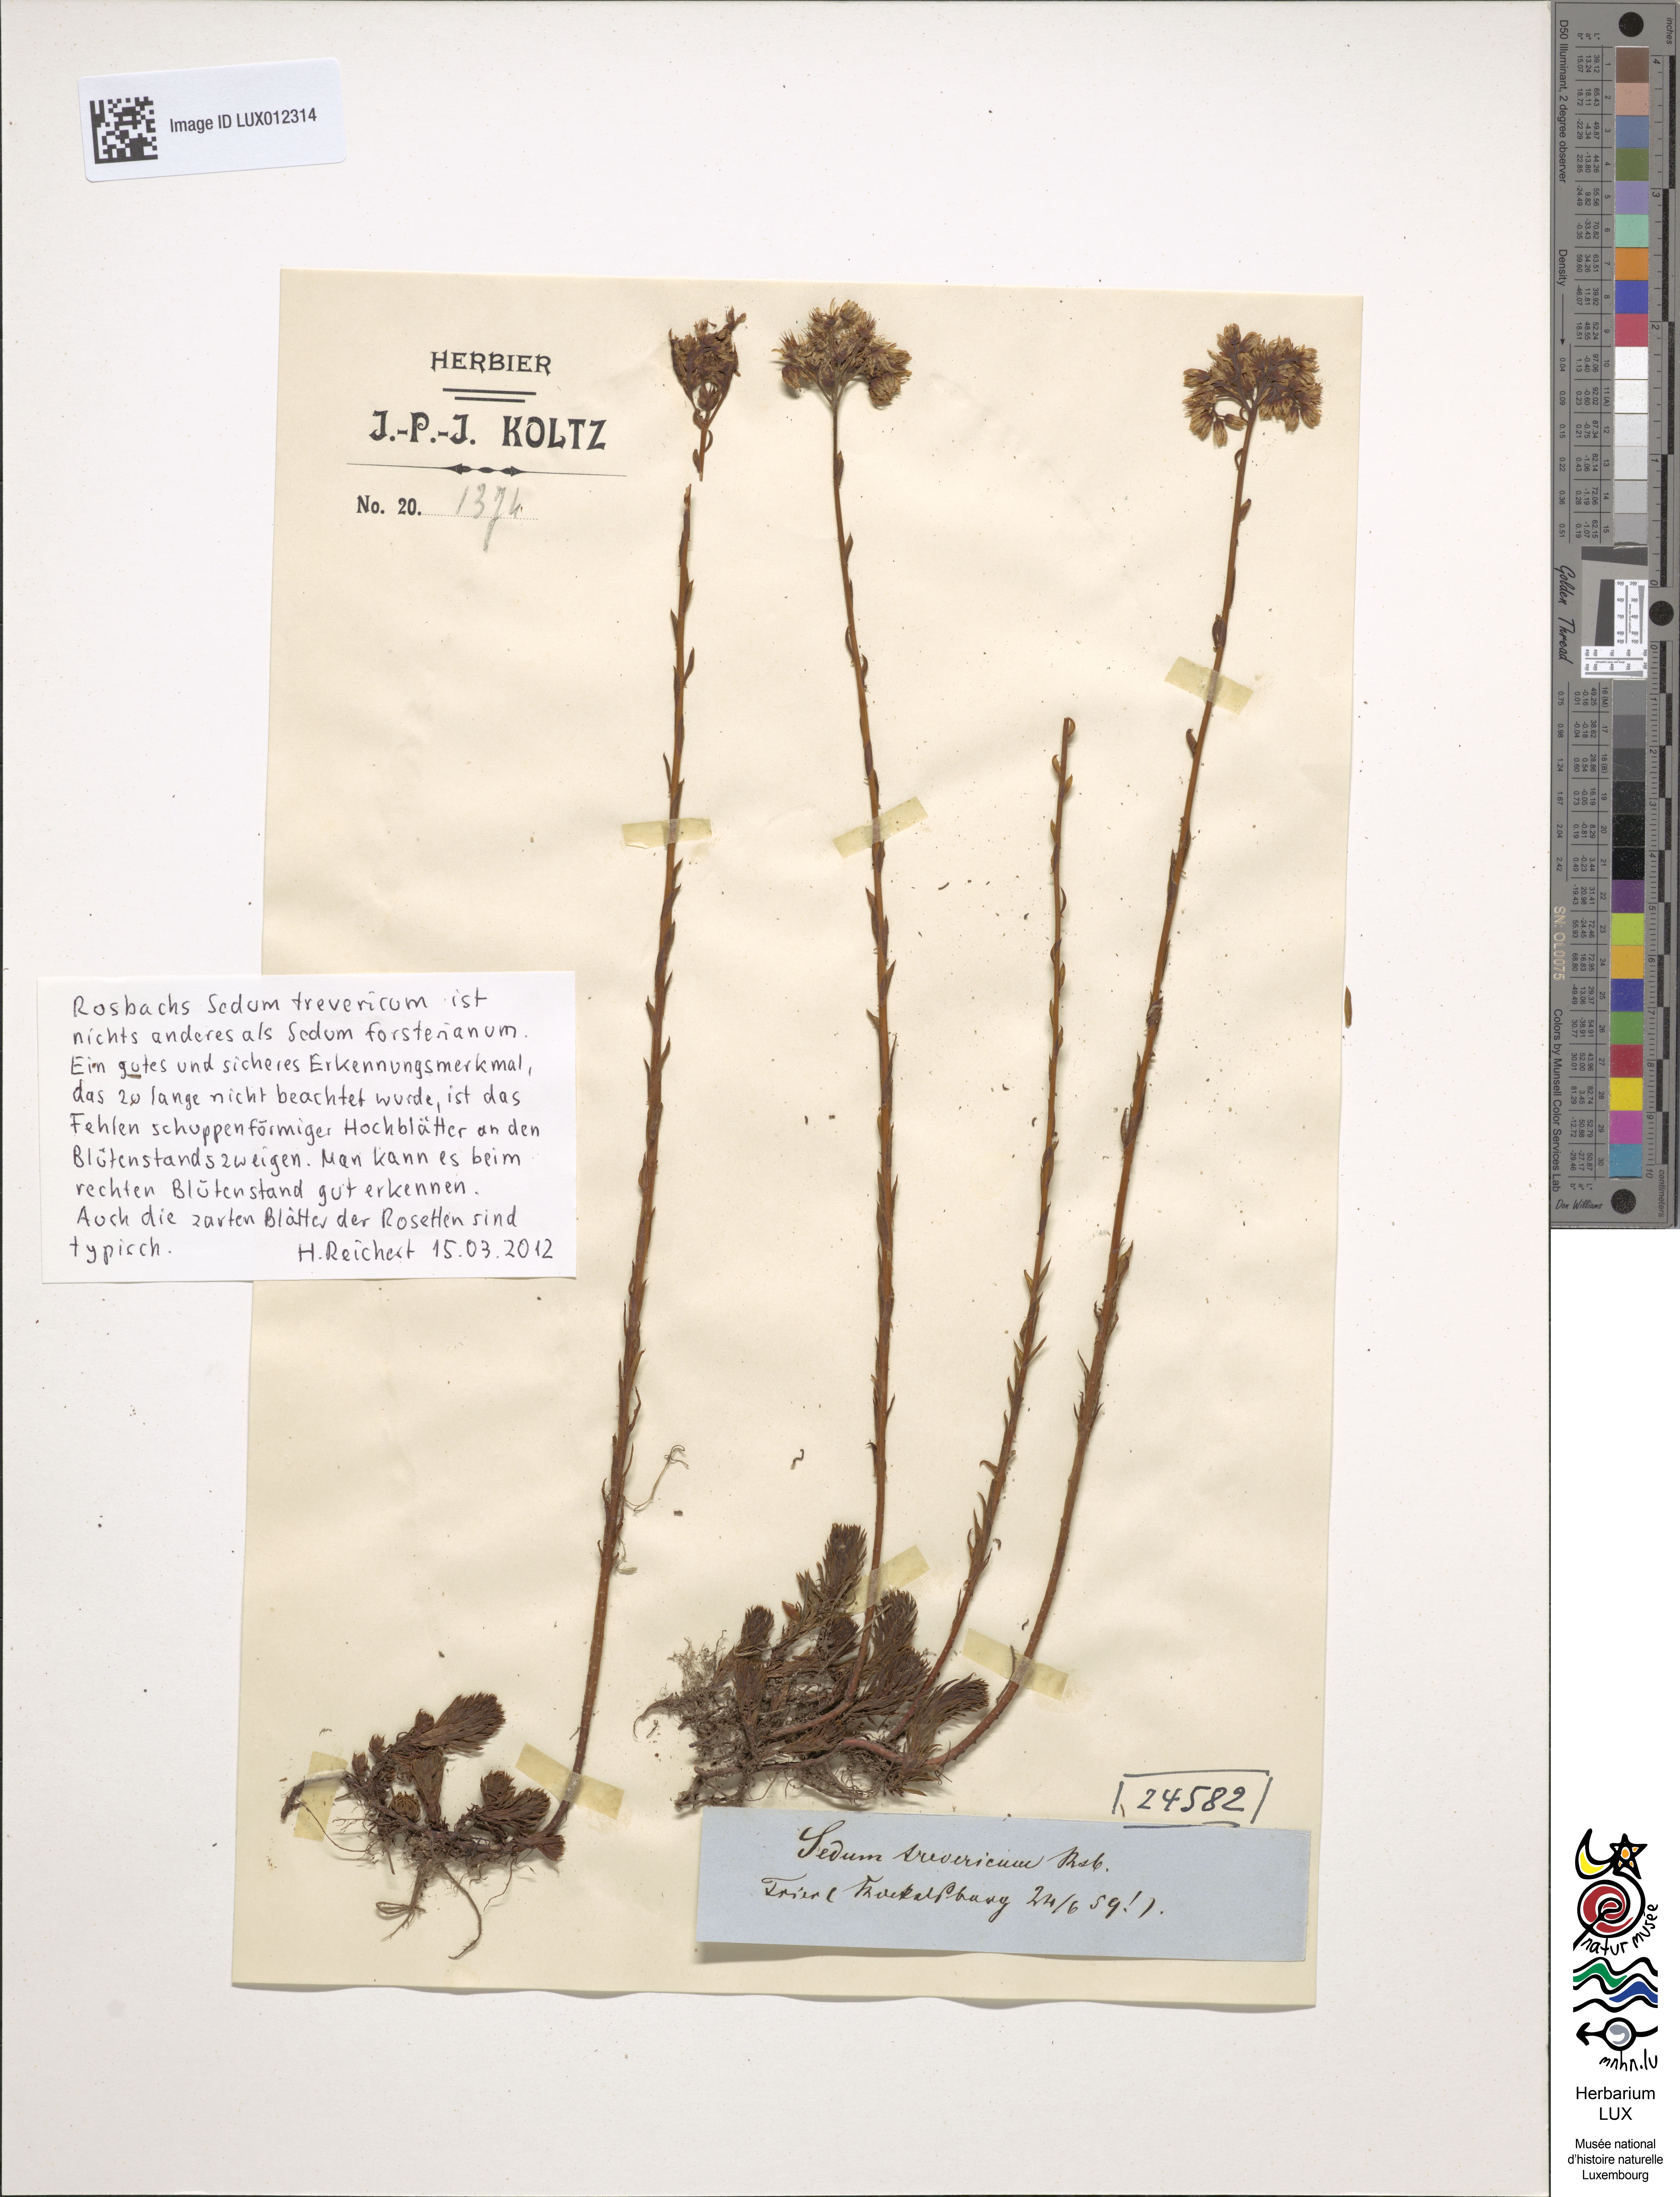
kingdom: Plantae
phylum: Tracheophyta
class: Magnoliopsida
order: Saxifragales
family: Crassulaceae
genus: Petrosedum
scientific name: Petrosedum forsterianum
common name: Forster's stonecrop
